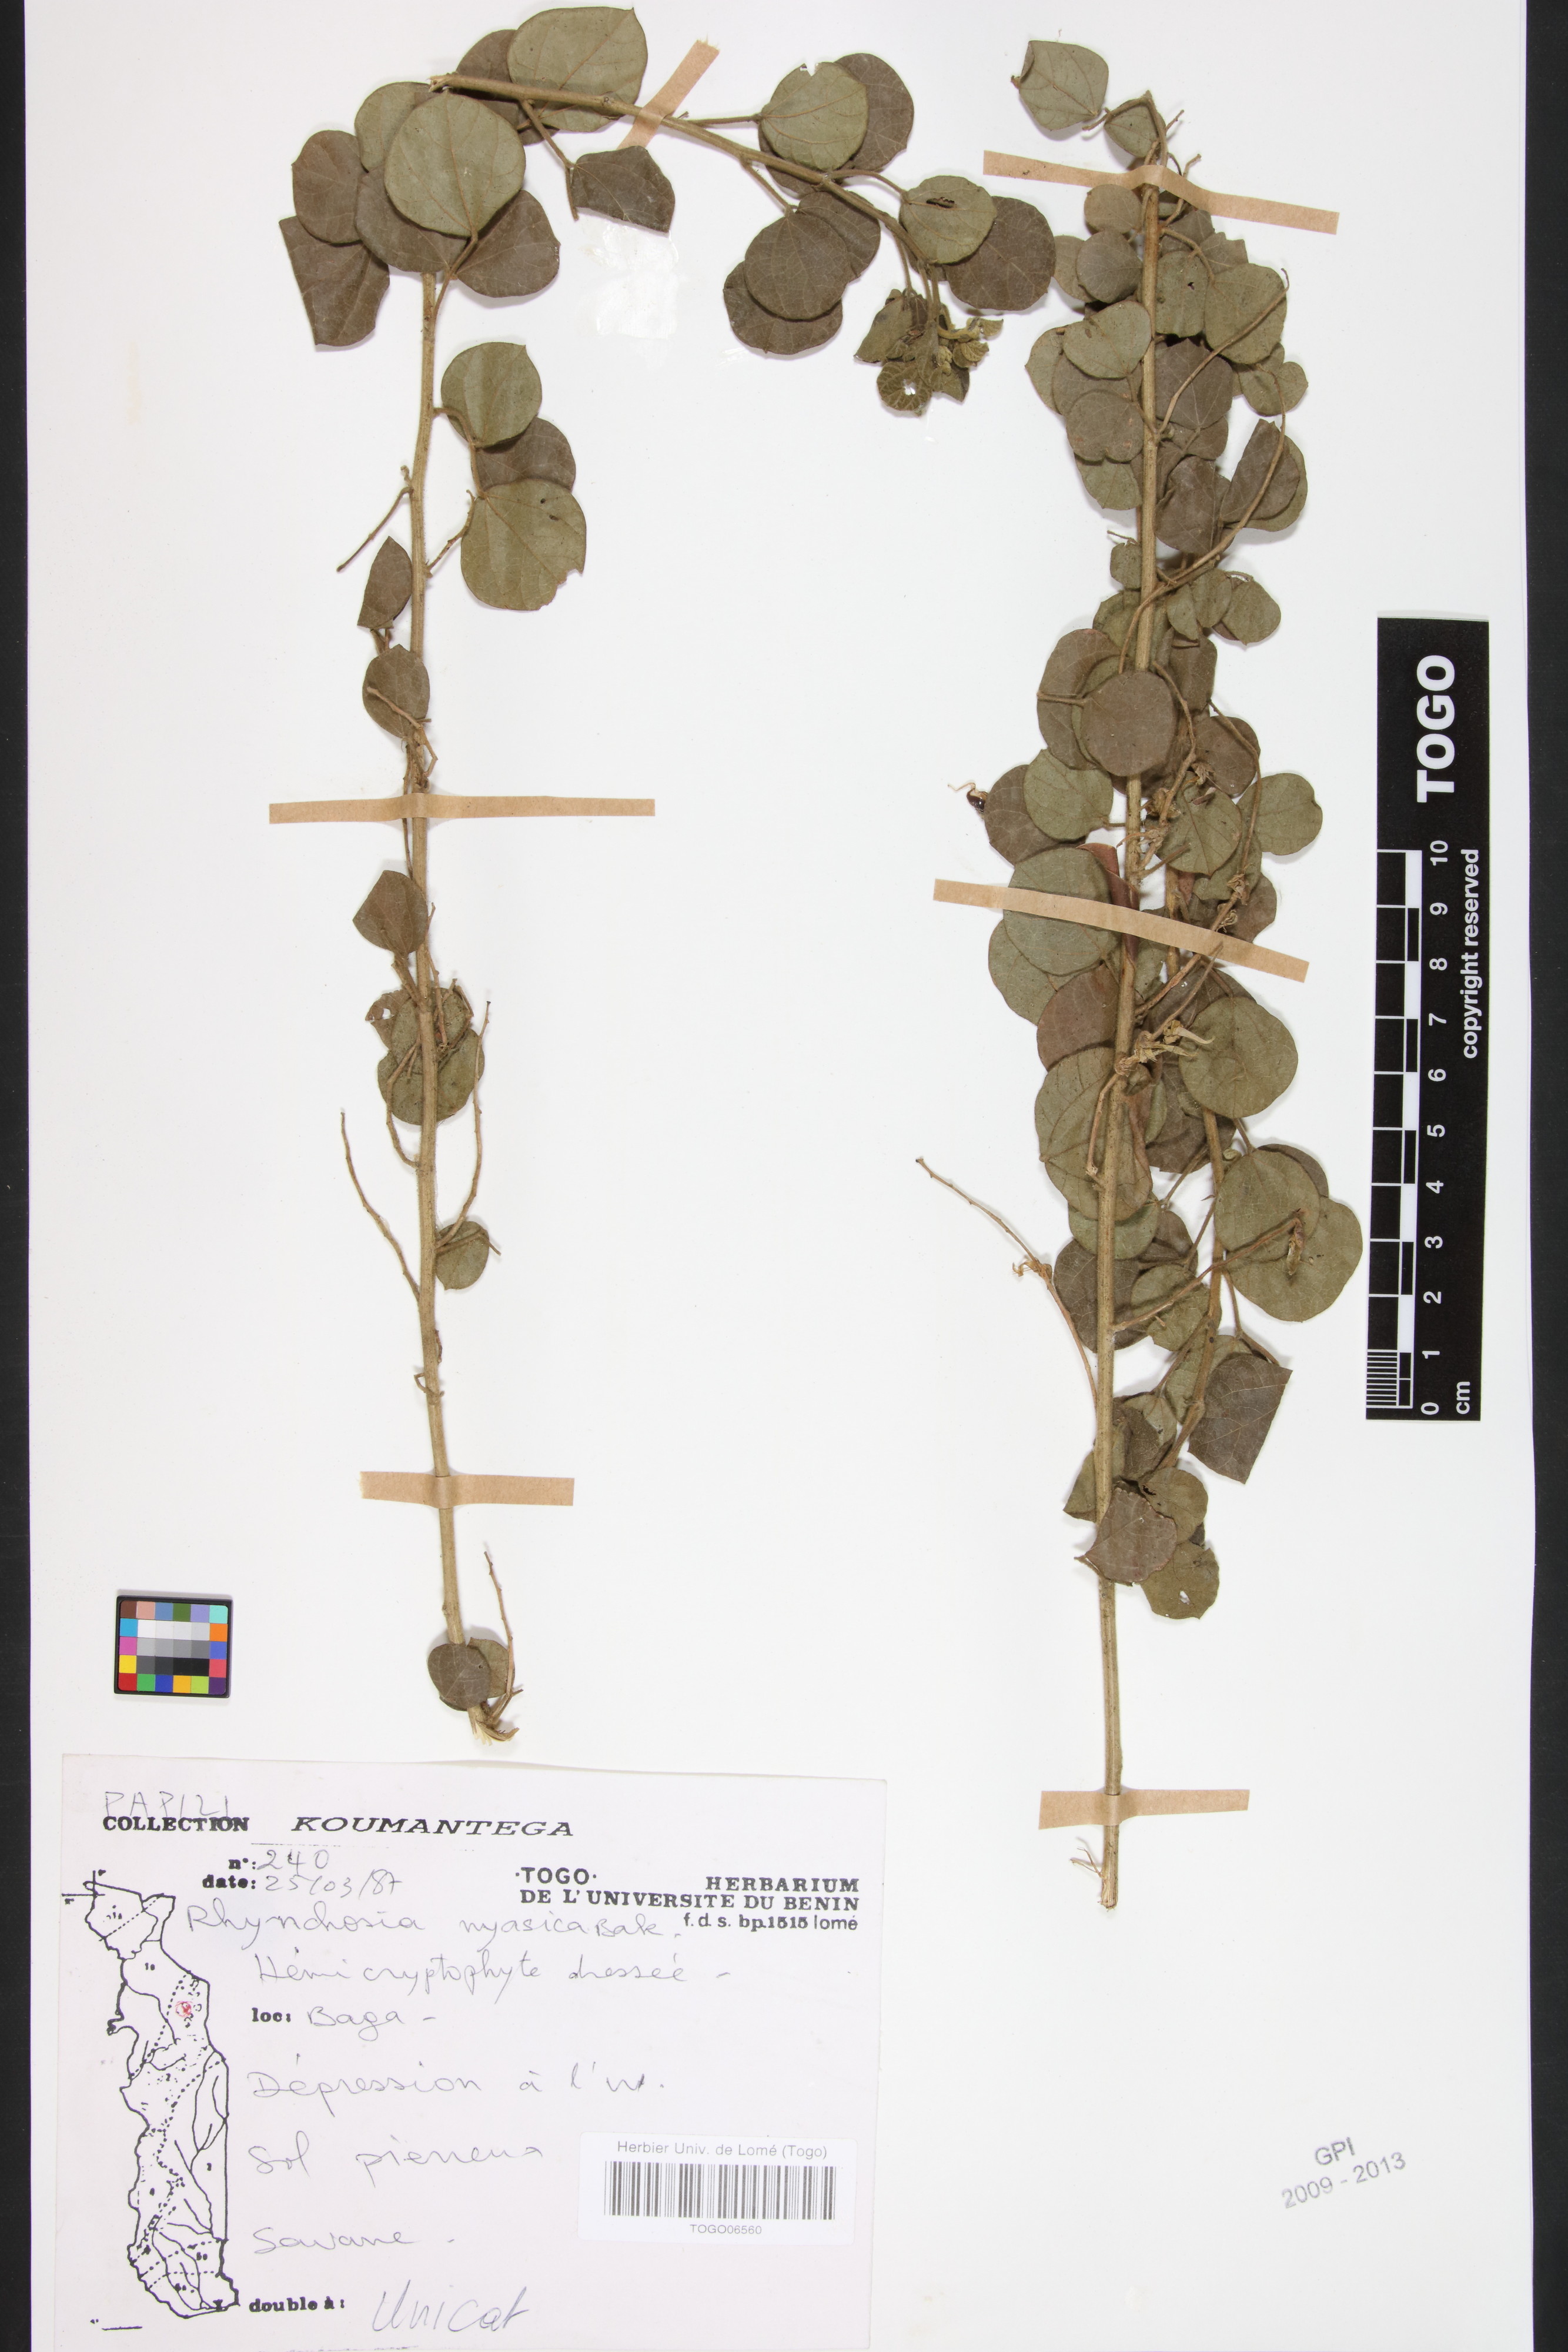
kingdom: Plantae
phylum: Tracheophyta
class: Magnoliopsida
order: Fabales
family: Fabaceae
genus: Rhynchosia
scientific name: Rhynchosia nyasica
